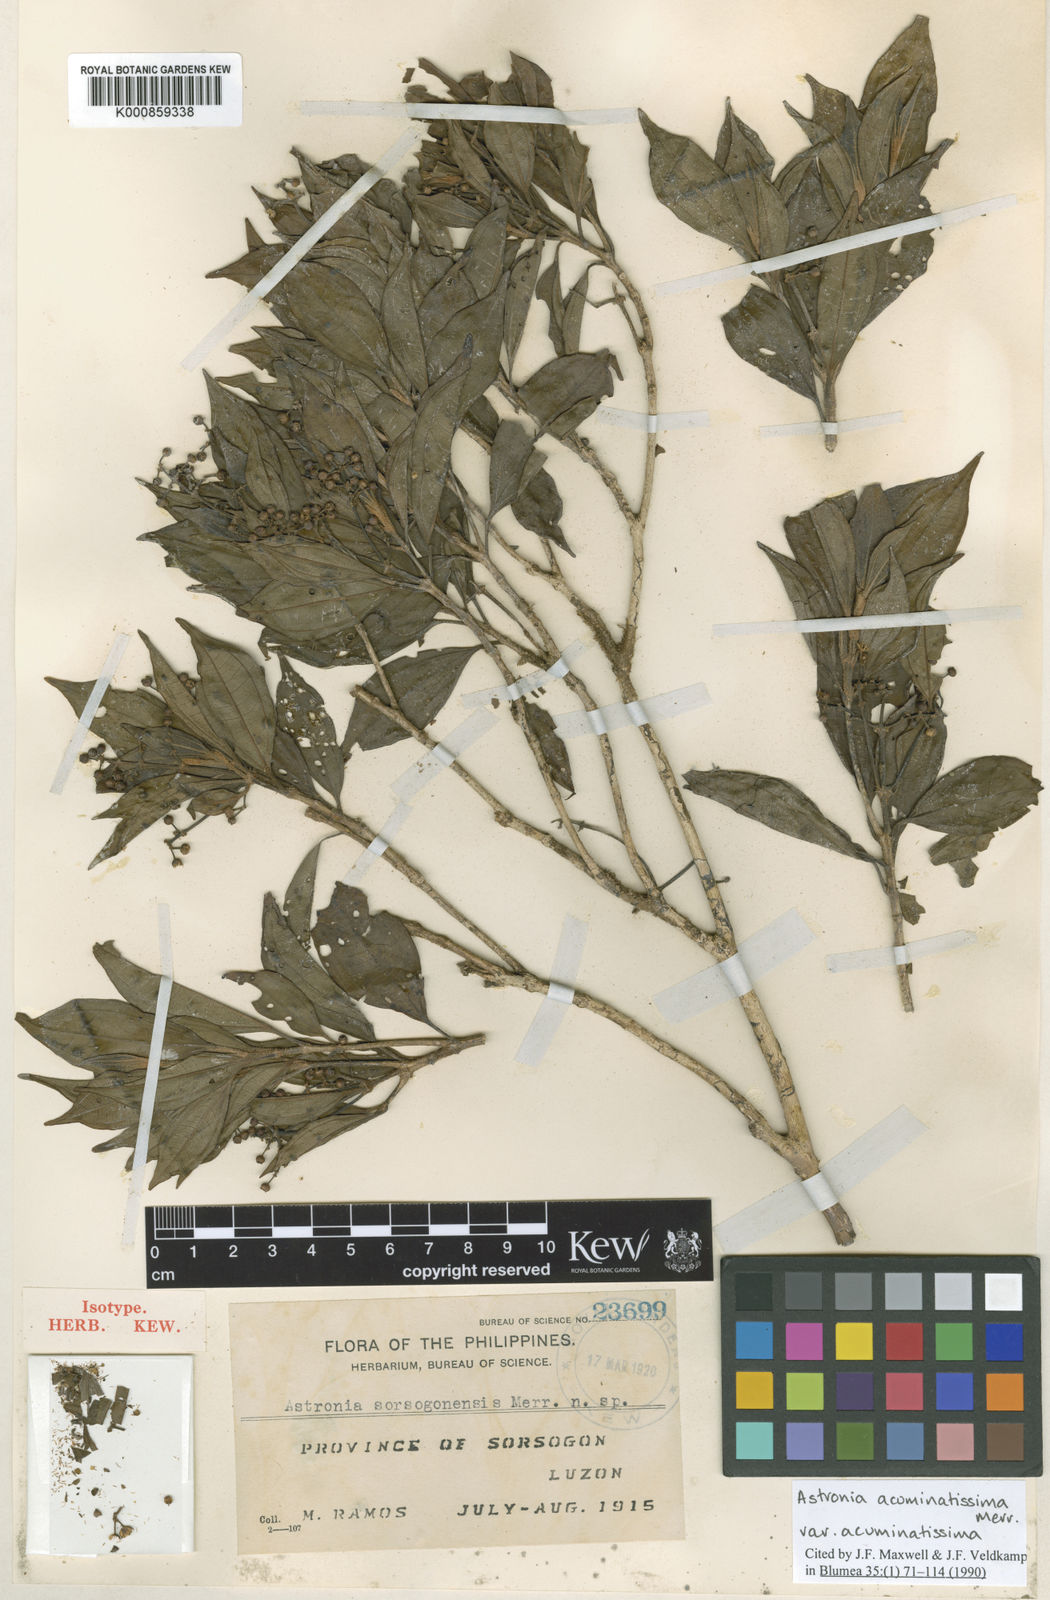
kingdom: Plantae
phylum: Tracheophyta
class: Magnoliopsida
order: Myrtales
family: Melastomataceae
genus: Astronia
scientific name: Astronia acuminatissima
